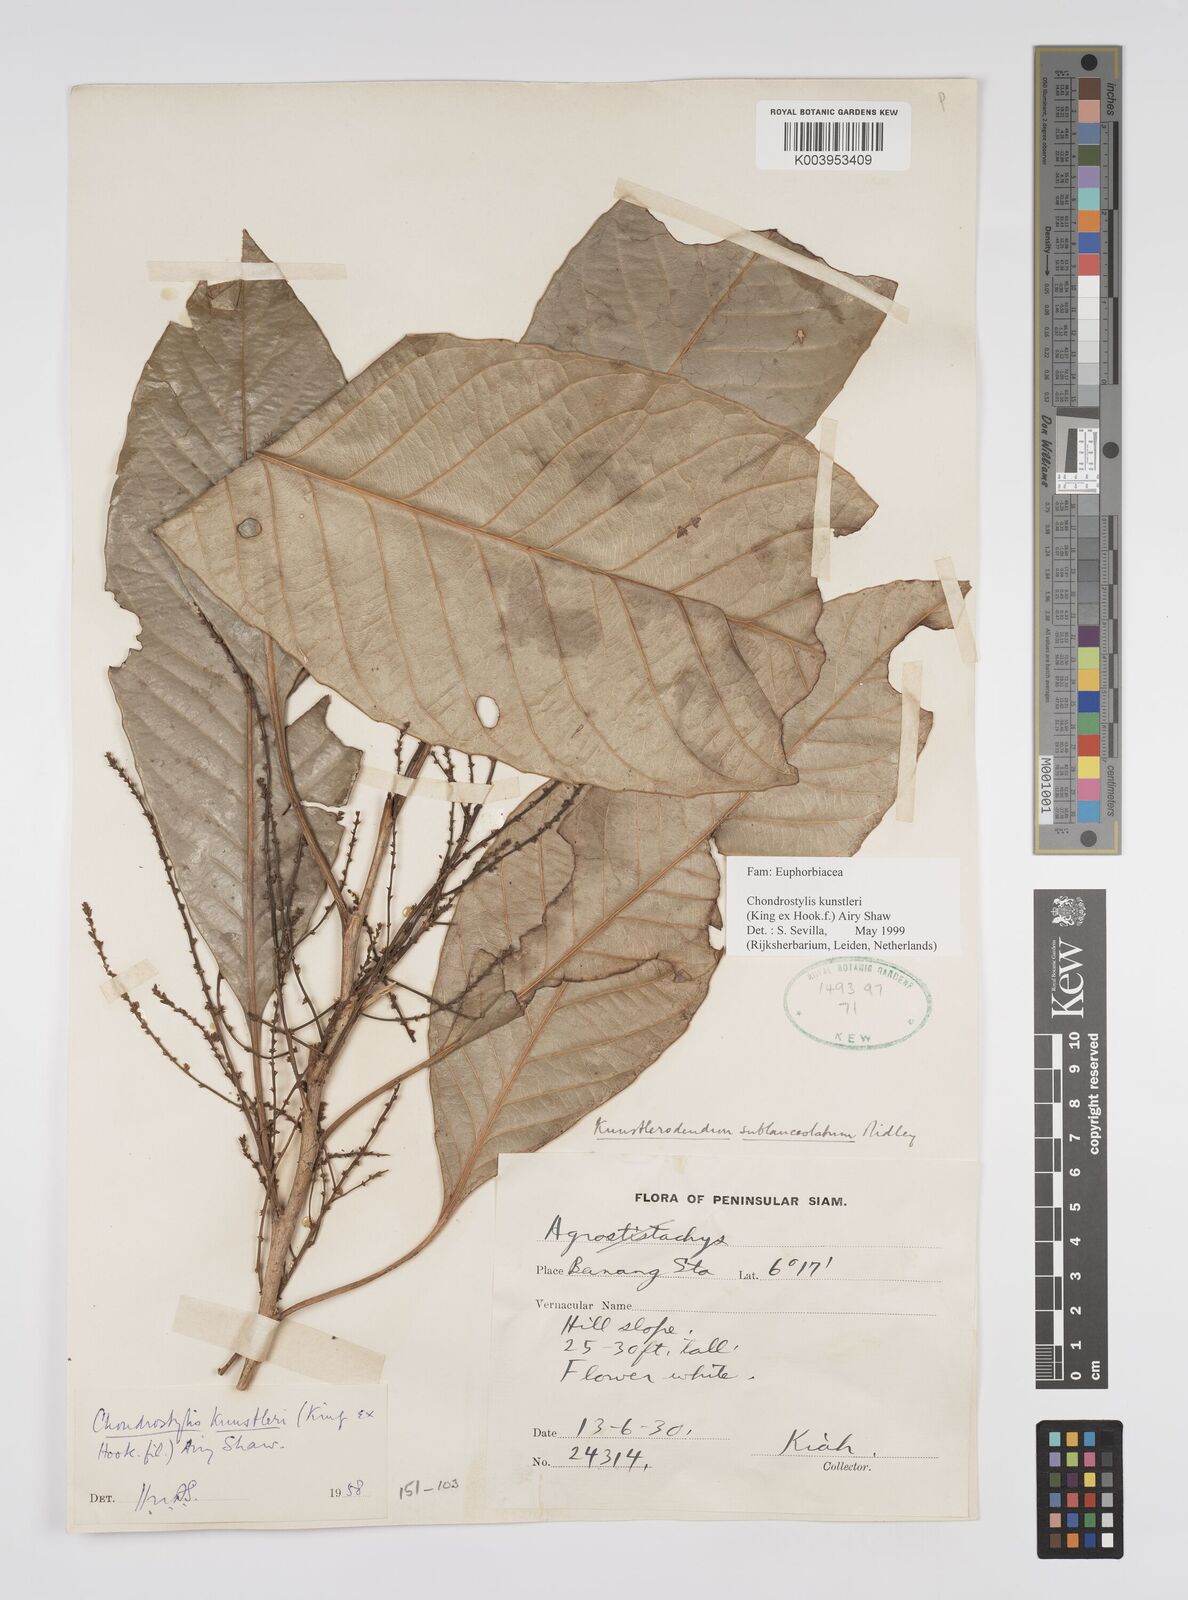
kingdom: Plantae
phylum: Tracheophyta
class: Magnoliopsida
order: Malpighiales
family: Euphorbiaceae
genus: Chondrostylis
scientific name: Chondrostylis kunstleri
